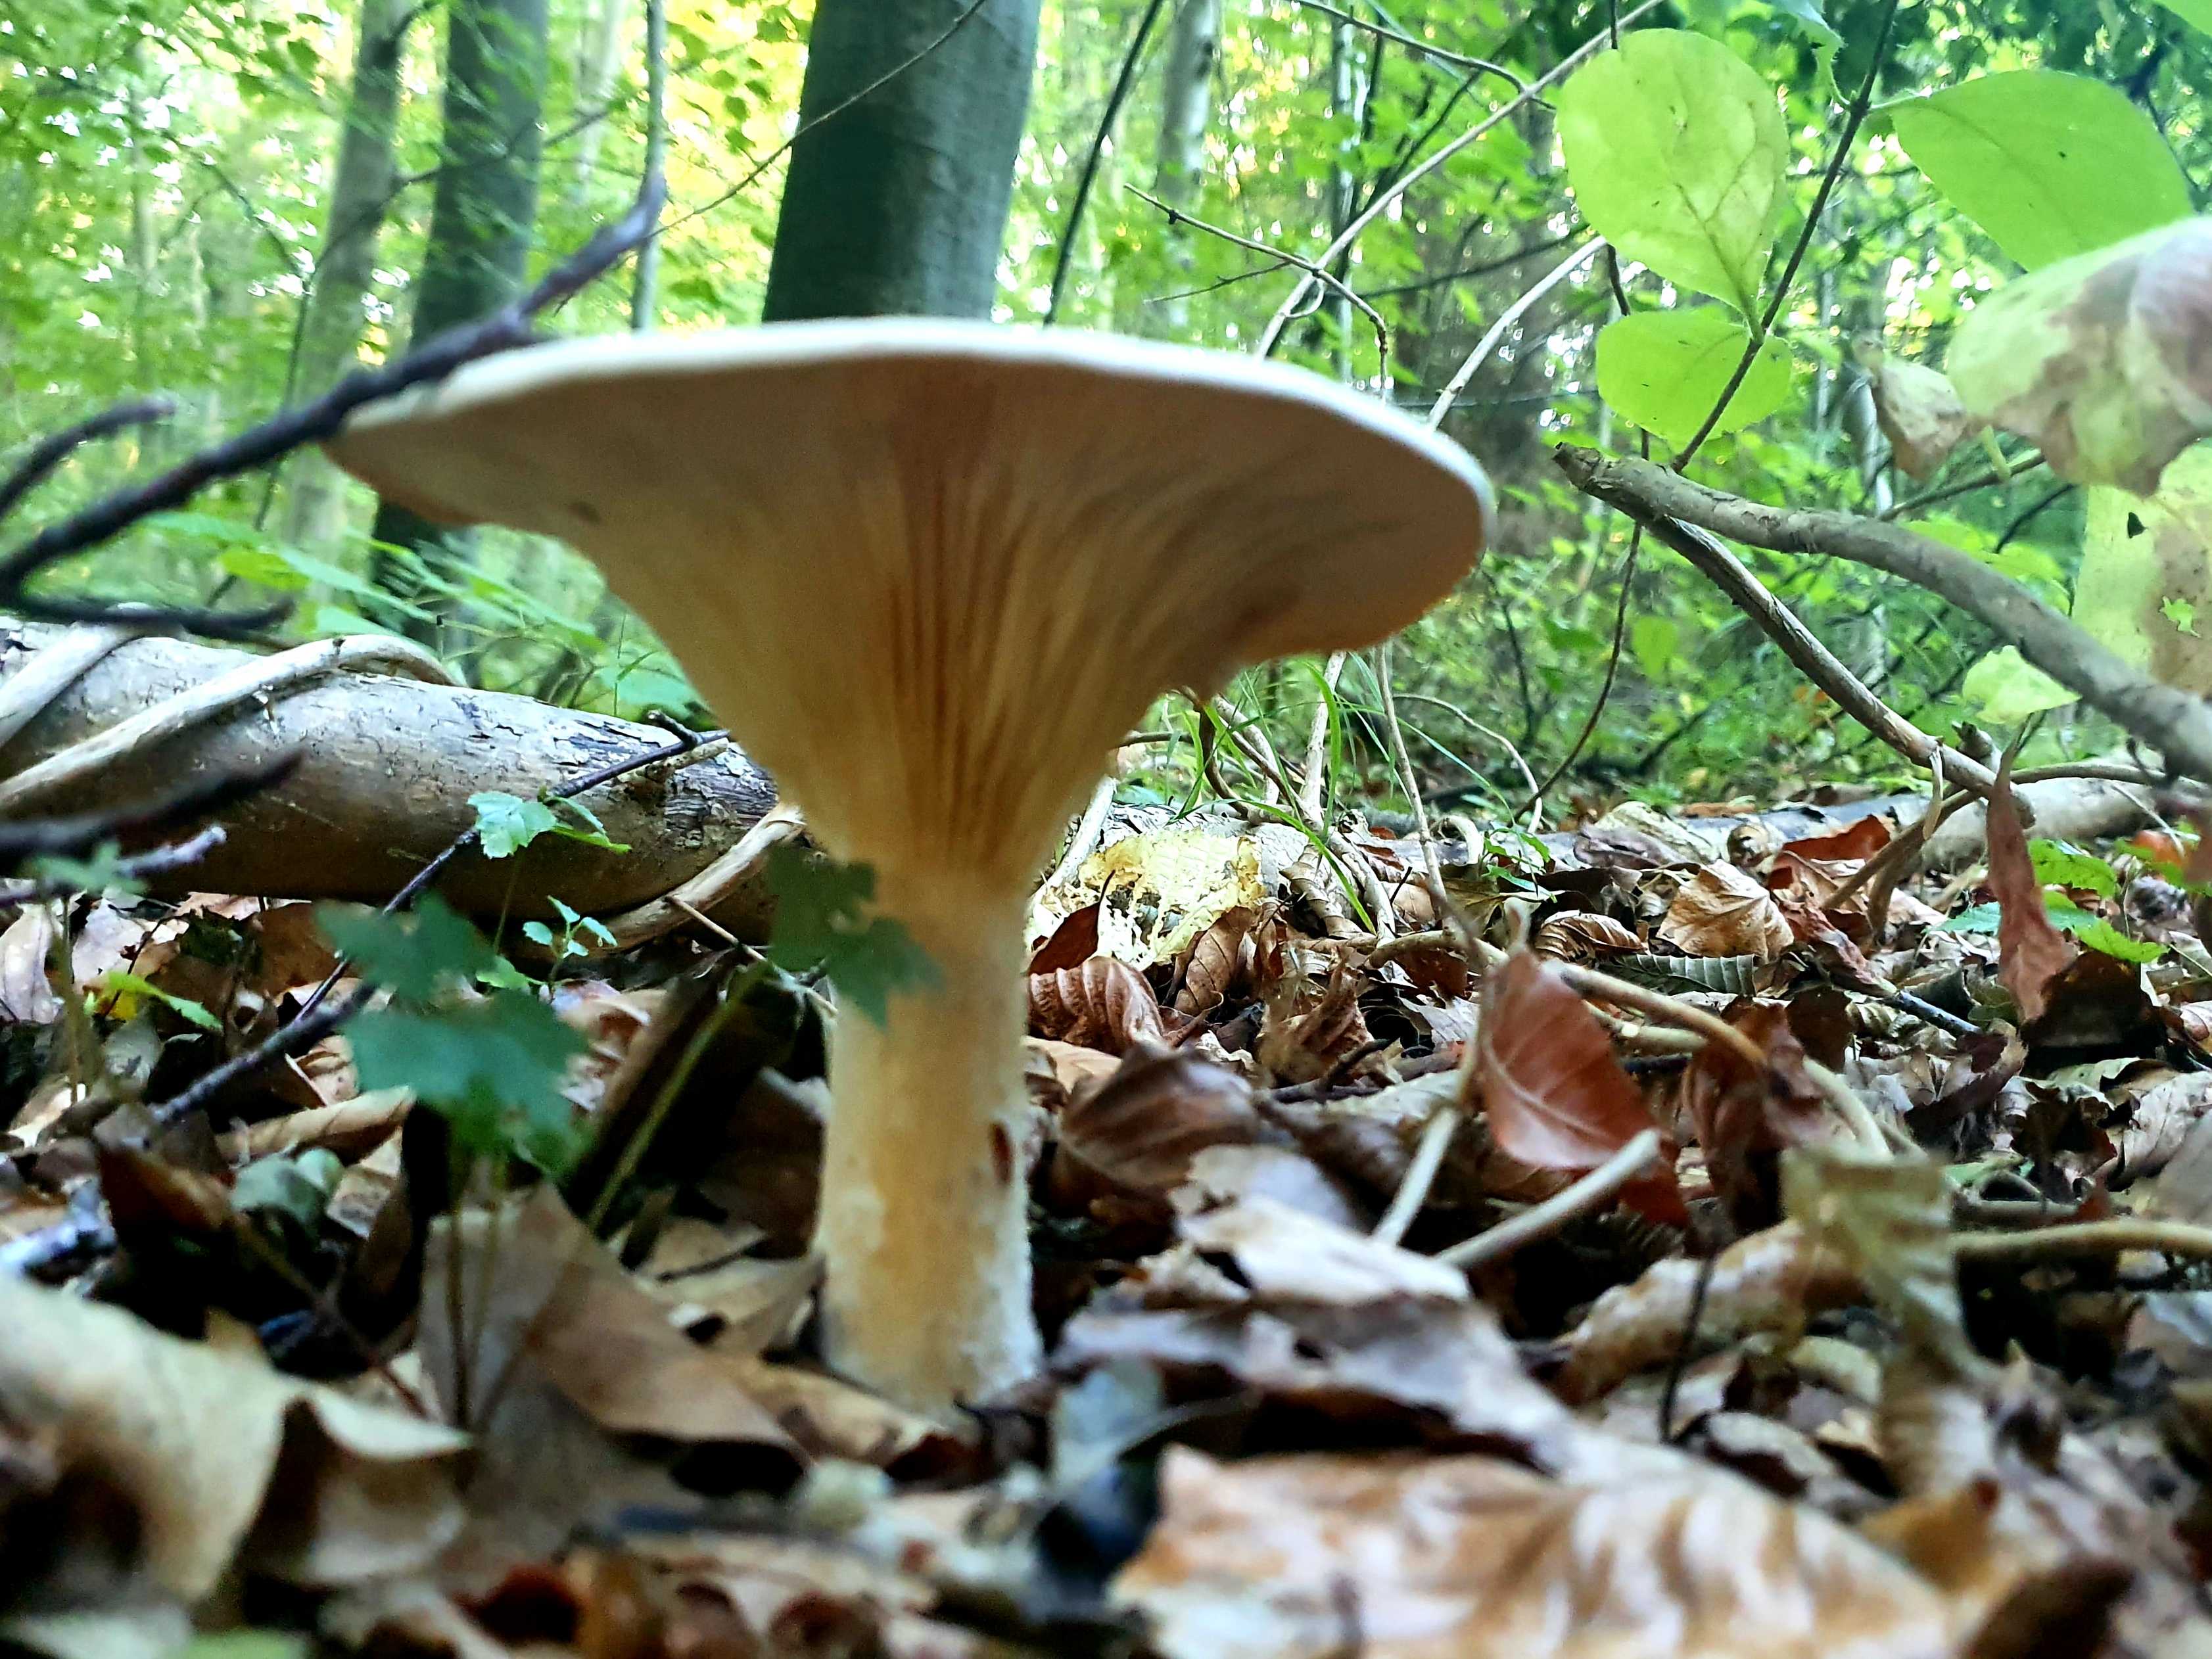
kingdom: Fungi
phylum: Basidiomycota
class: Agaricomycetes
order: Agaricales
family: Tricholomataceae
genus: Infundibulicybe
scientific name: Infundibulicybe geotropa
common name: stor tragthat
